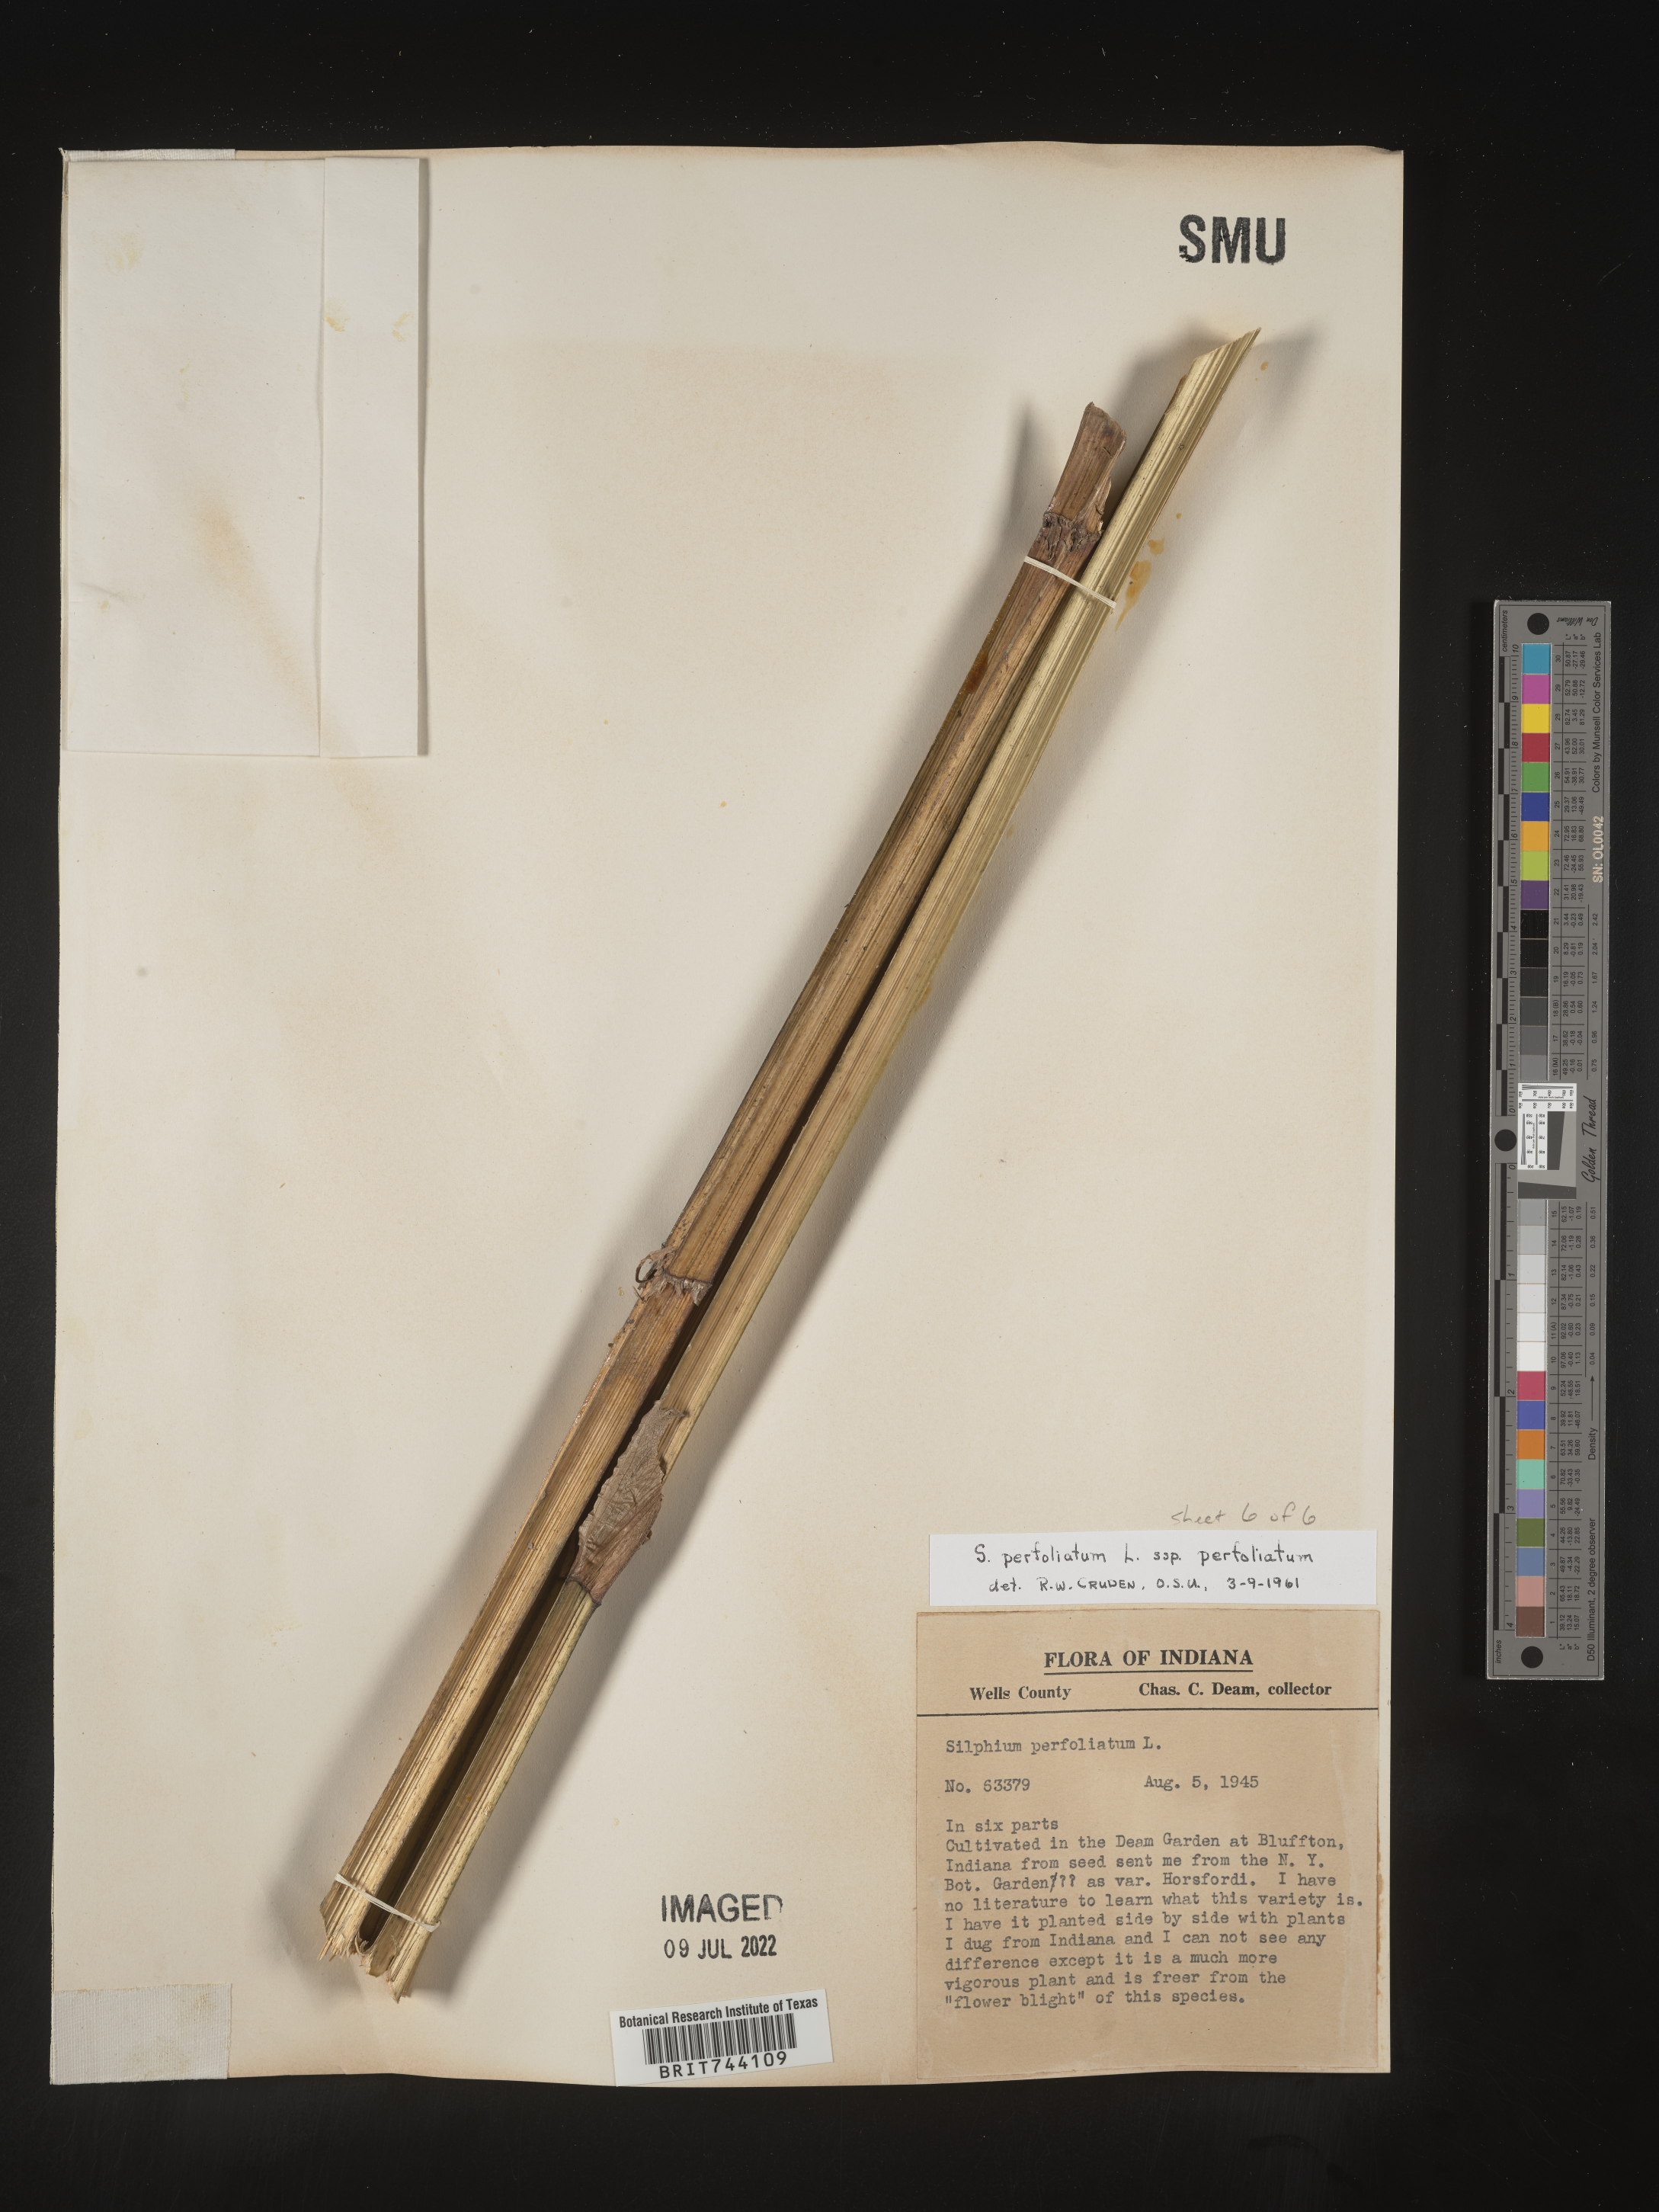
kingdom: Plantae
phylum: Tracheophyta
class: Magnoliopsida
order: Asterales
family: Asteraceae
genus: Silphium
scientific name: Silphium
